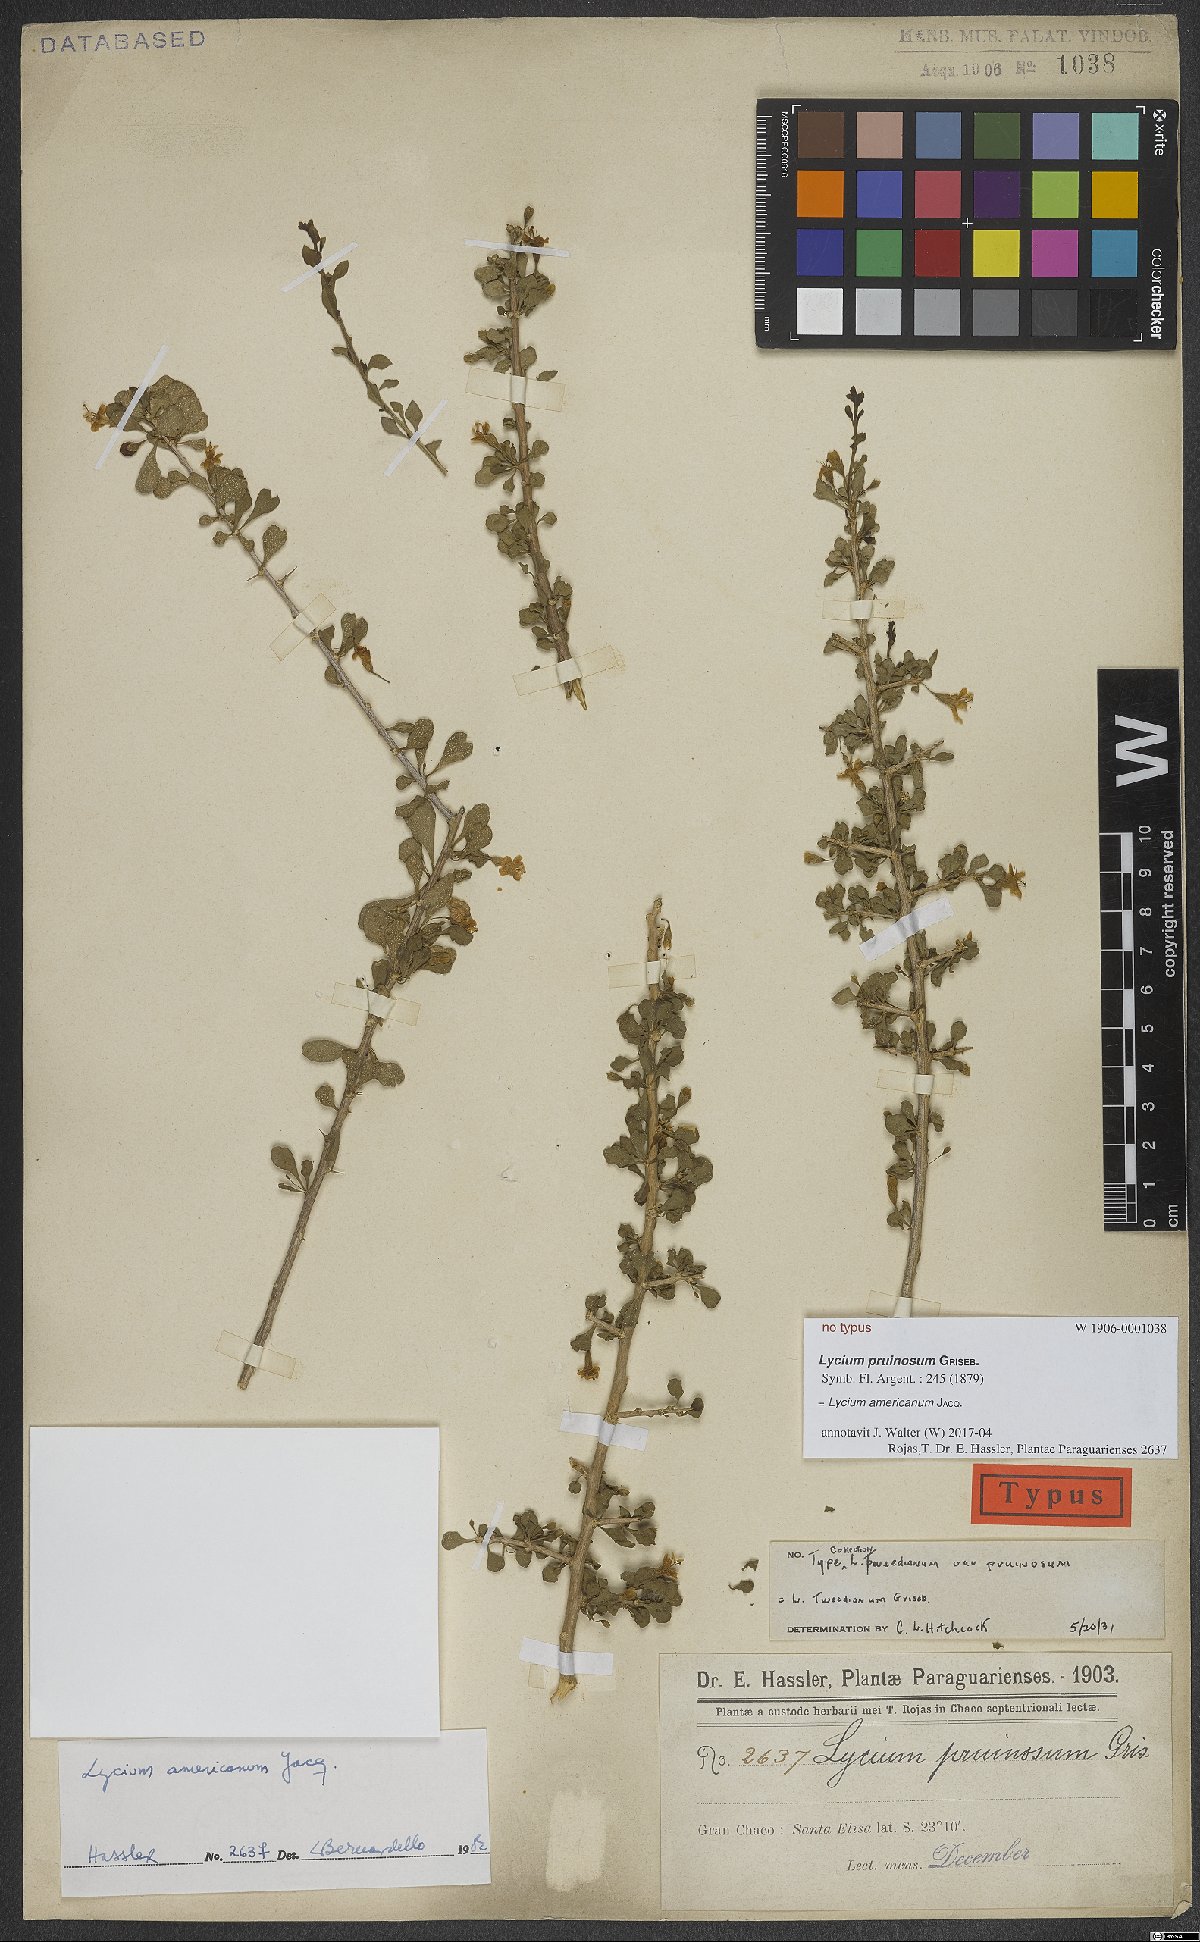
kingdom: Plantae
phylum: Tracheophyta
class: Magnoliopsida
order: Solanales
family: Solanaceae
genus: Lycium
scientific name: Lycium americanum
